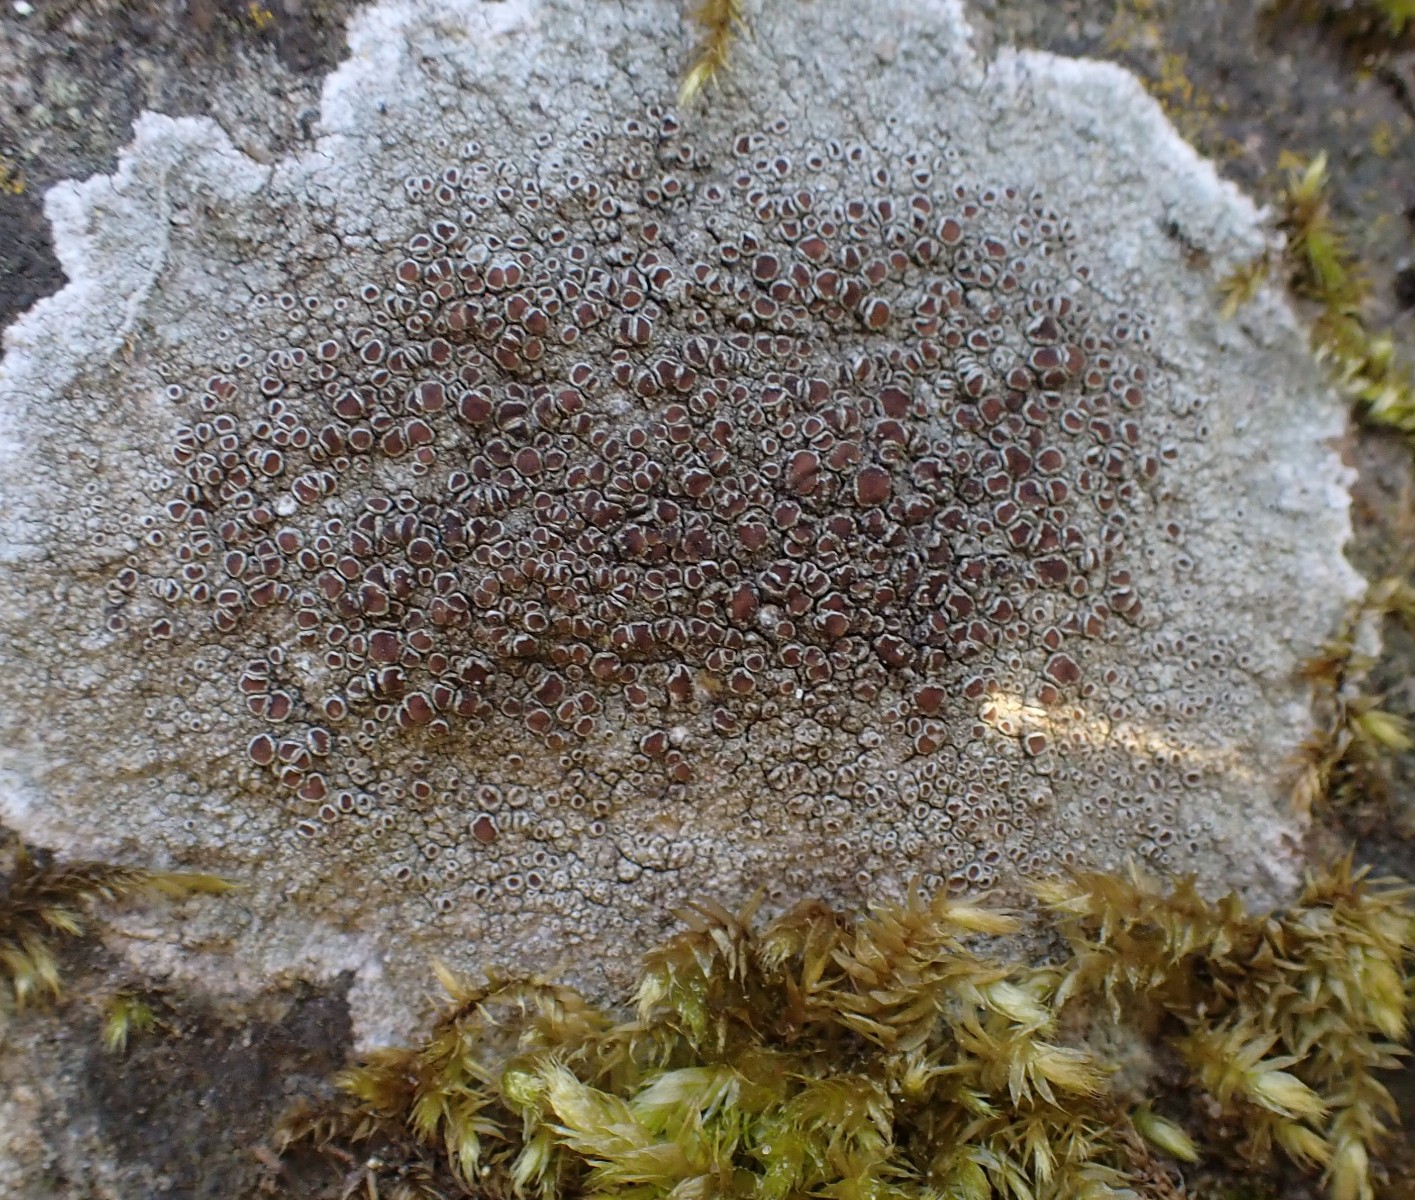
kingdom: Fungi
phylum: Ascomycota
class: Lecanoromycetes
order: Lecanorales
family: Lecanoraceae
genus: Lecanora
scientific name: Lecanora campestris
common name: mur-kantskivelav
